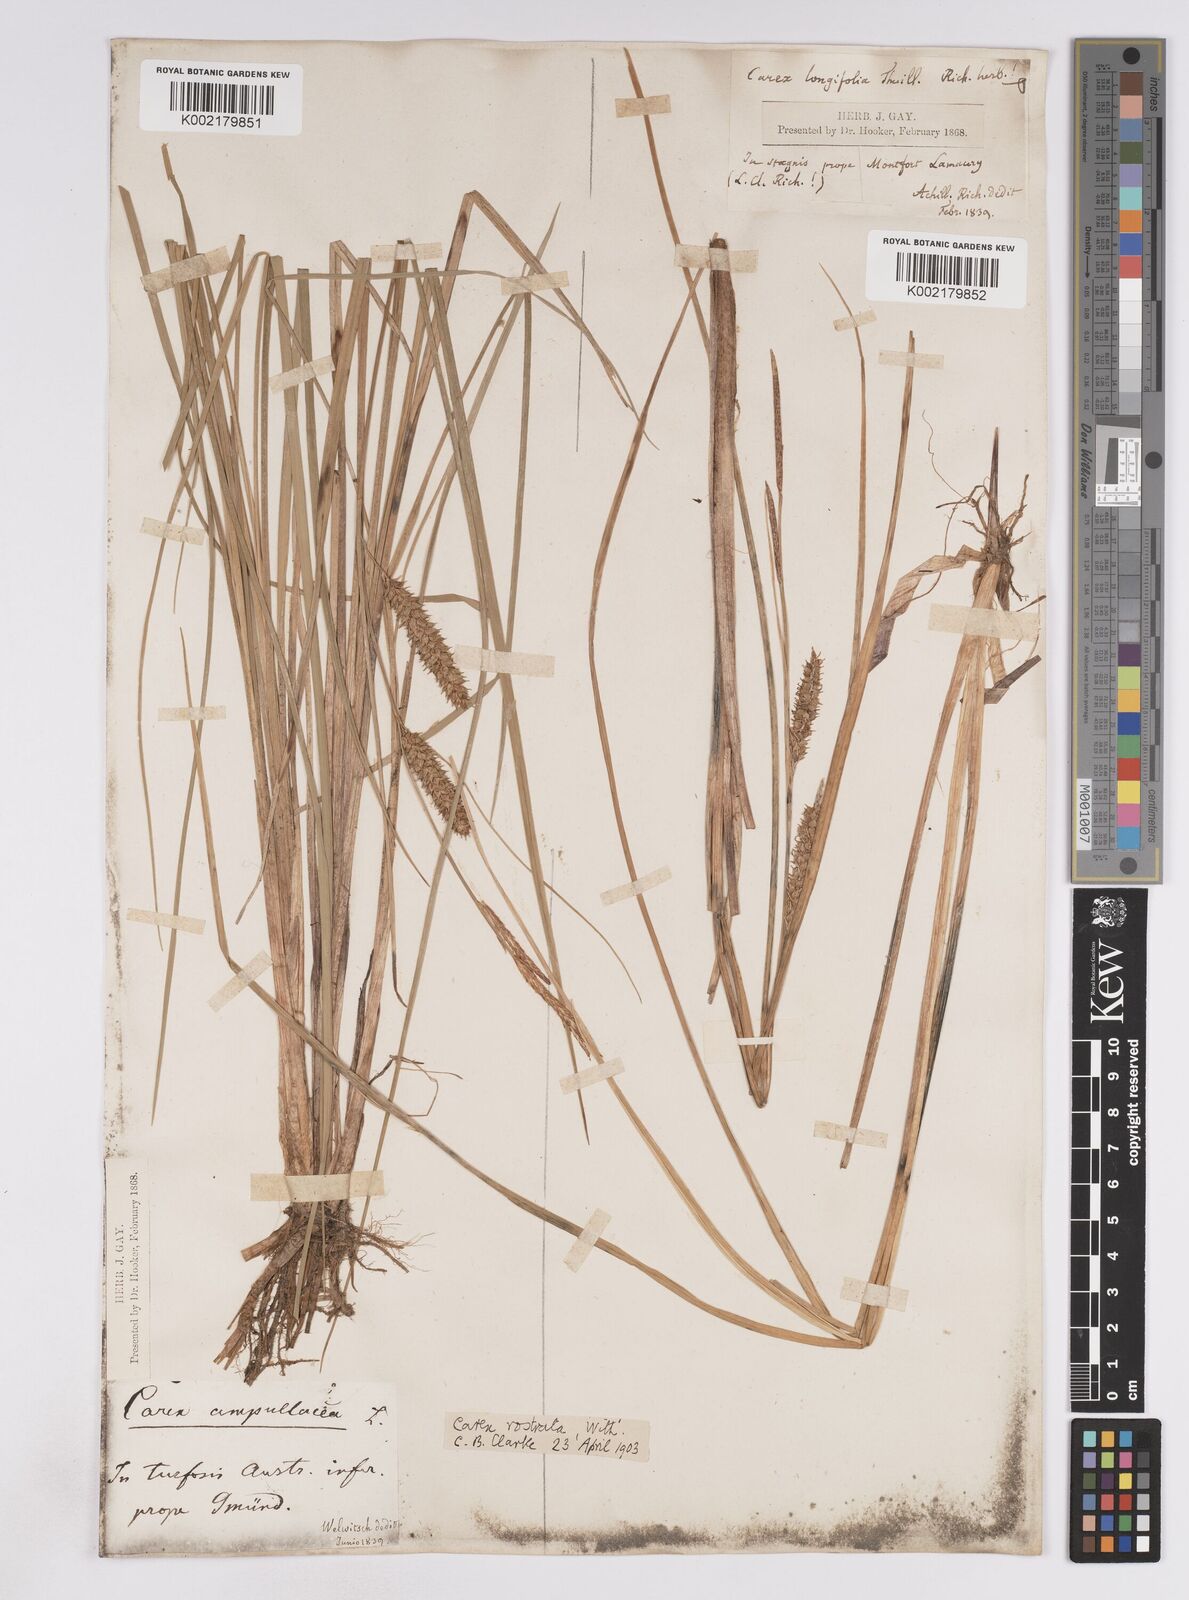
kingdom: Plantae
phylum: Tracheophyta
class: Liliopsida
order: Poales
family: Cyperaceae
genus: Carex
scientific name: Carex rostrata
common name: Bottle sedge
